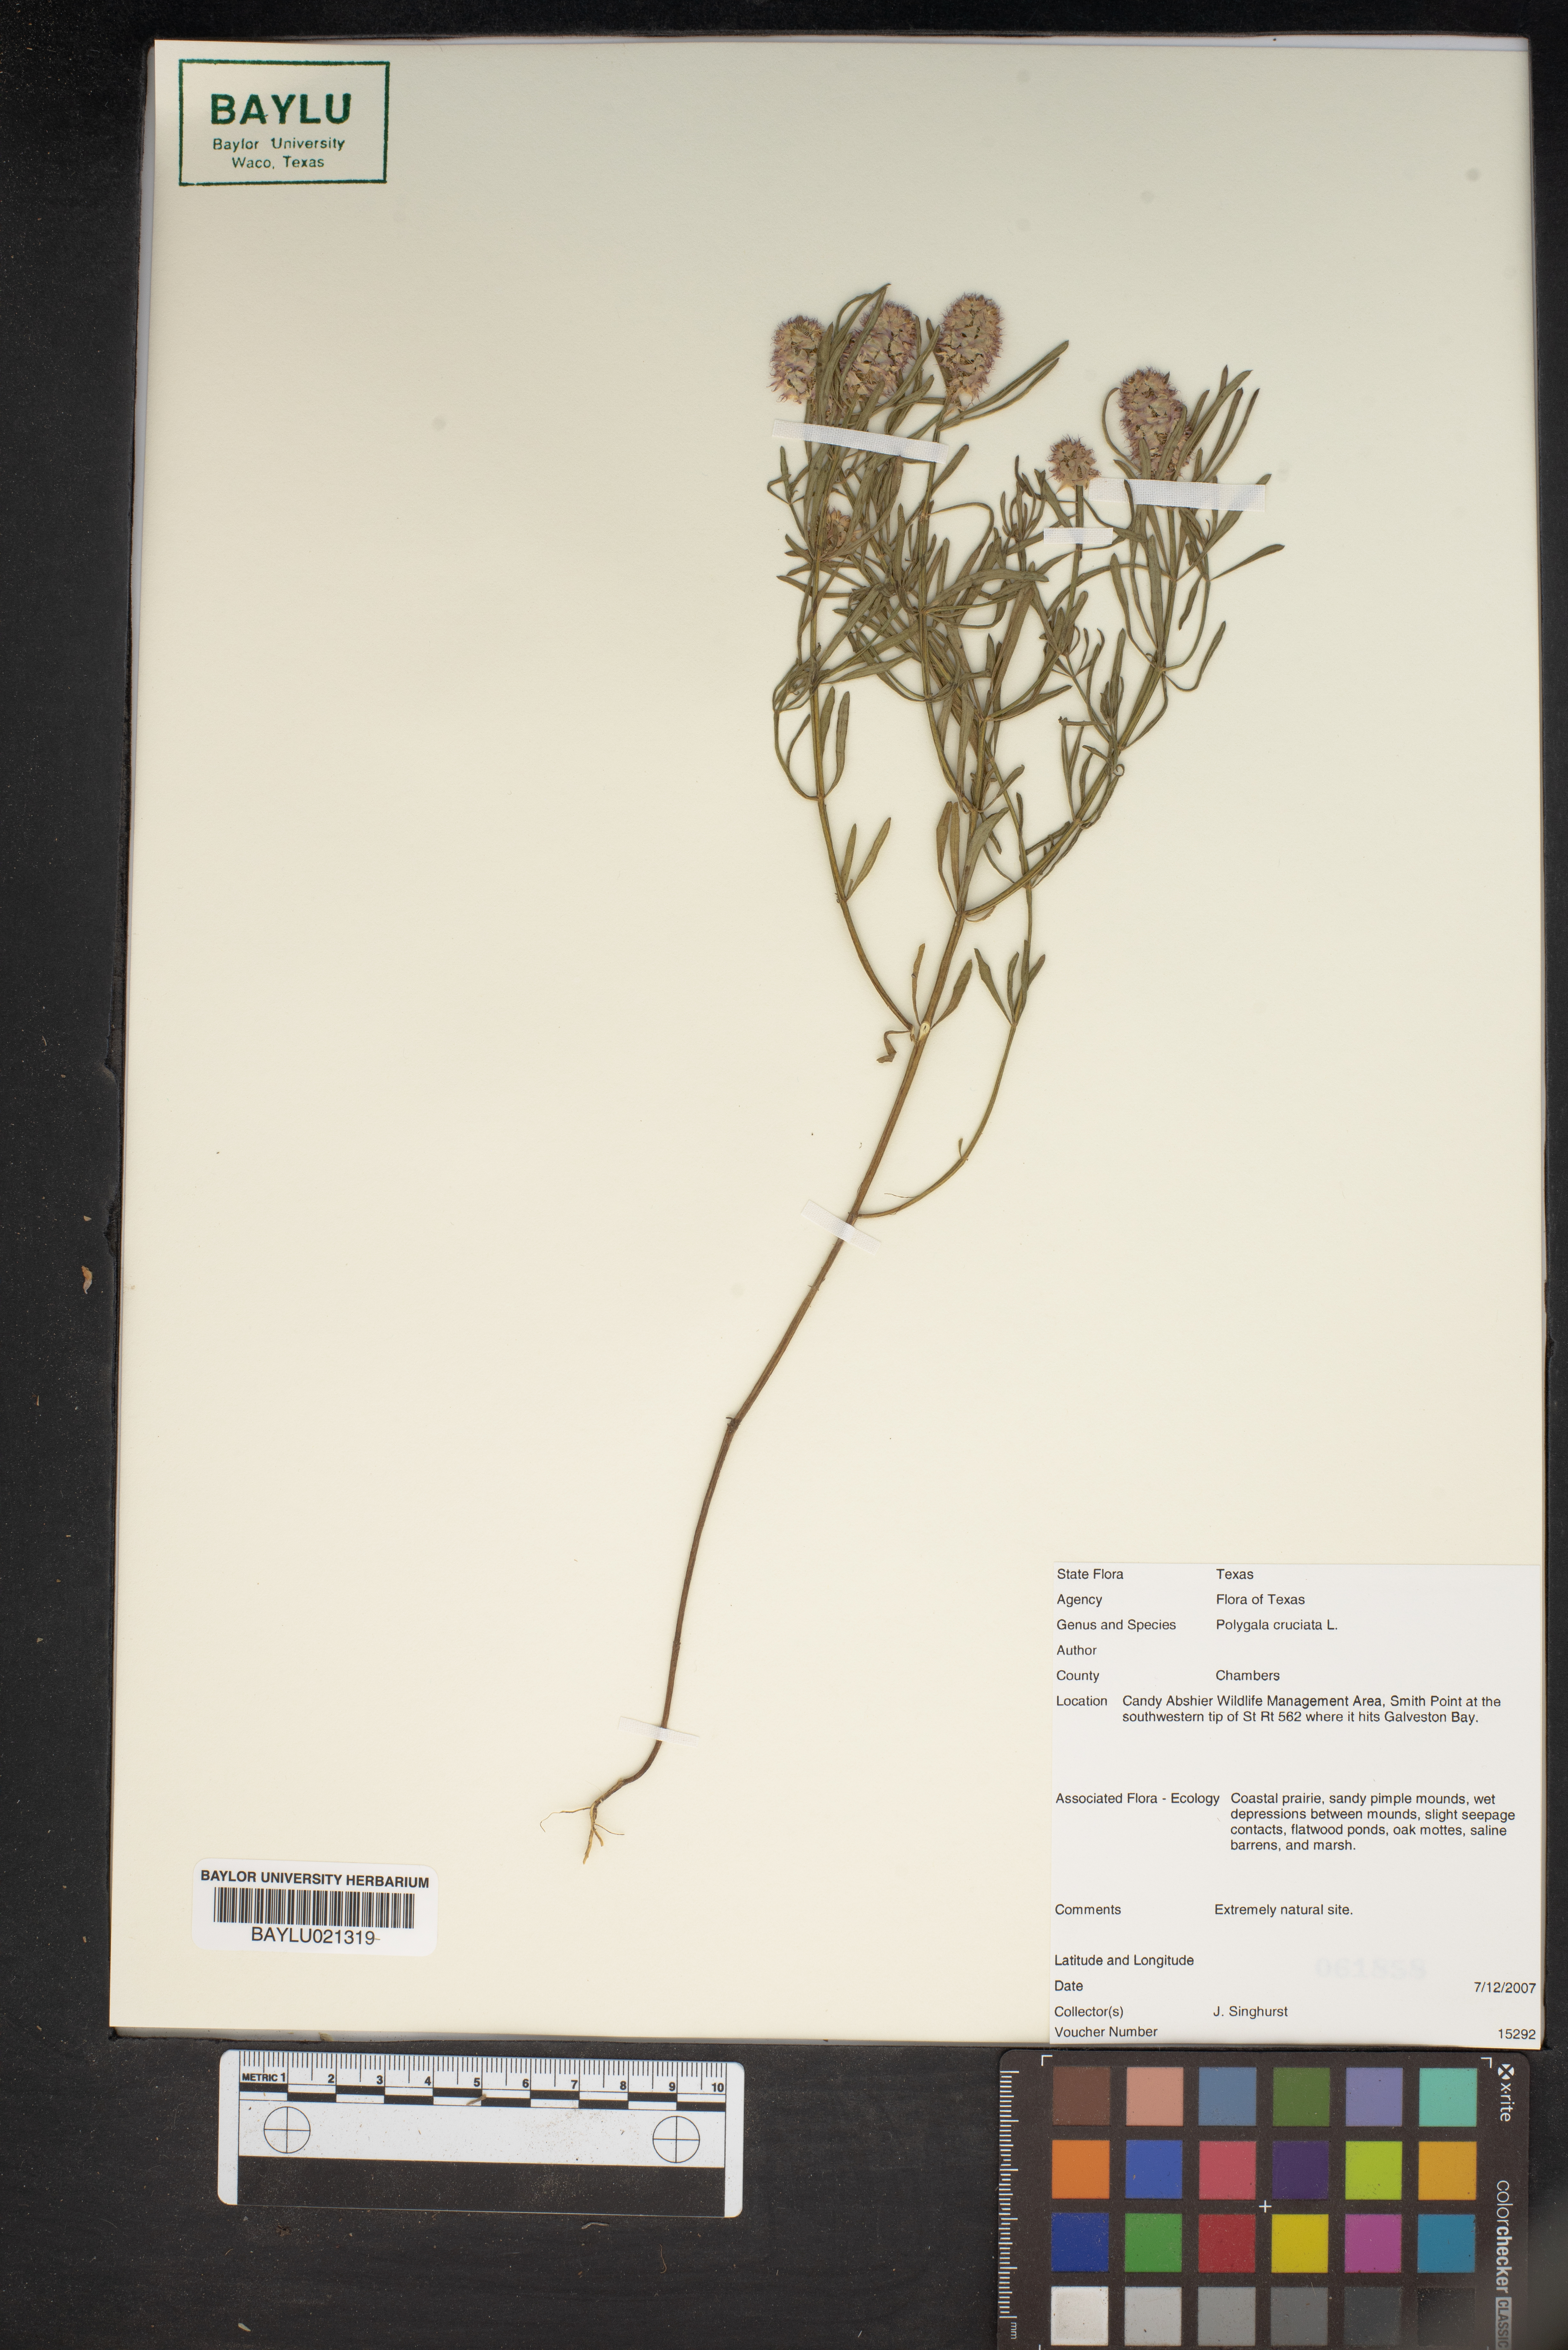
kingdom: Plantae
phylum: Tracheophyta
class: Magnoliopsida
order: Fabales
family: Polygalaceae
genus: Polygala
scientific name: Polygala cruciata
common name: Drumheads
